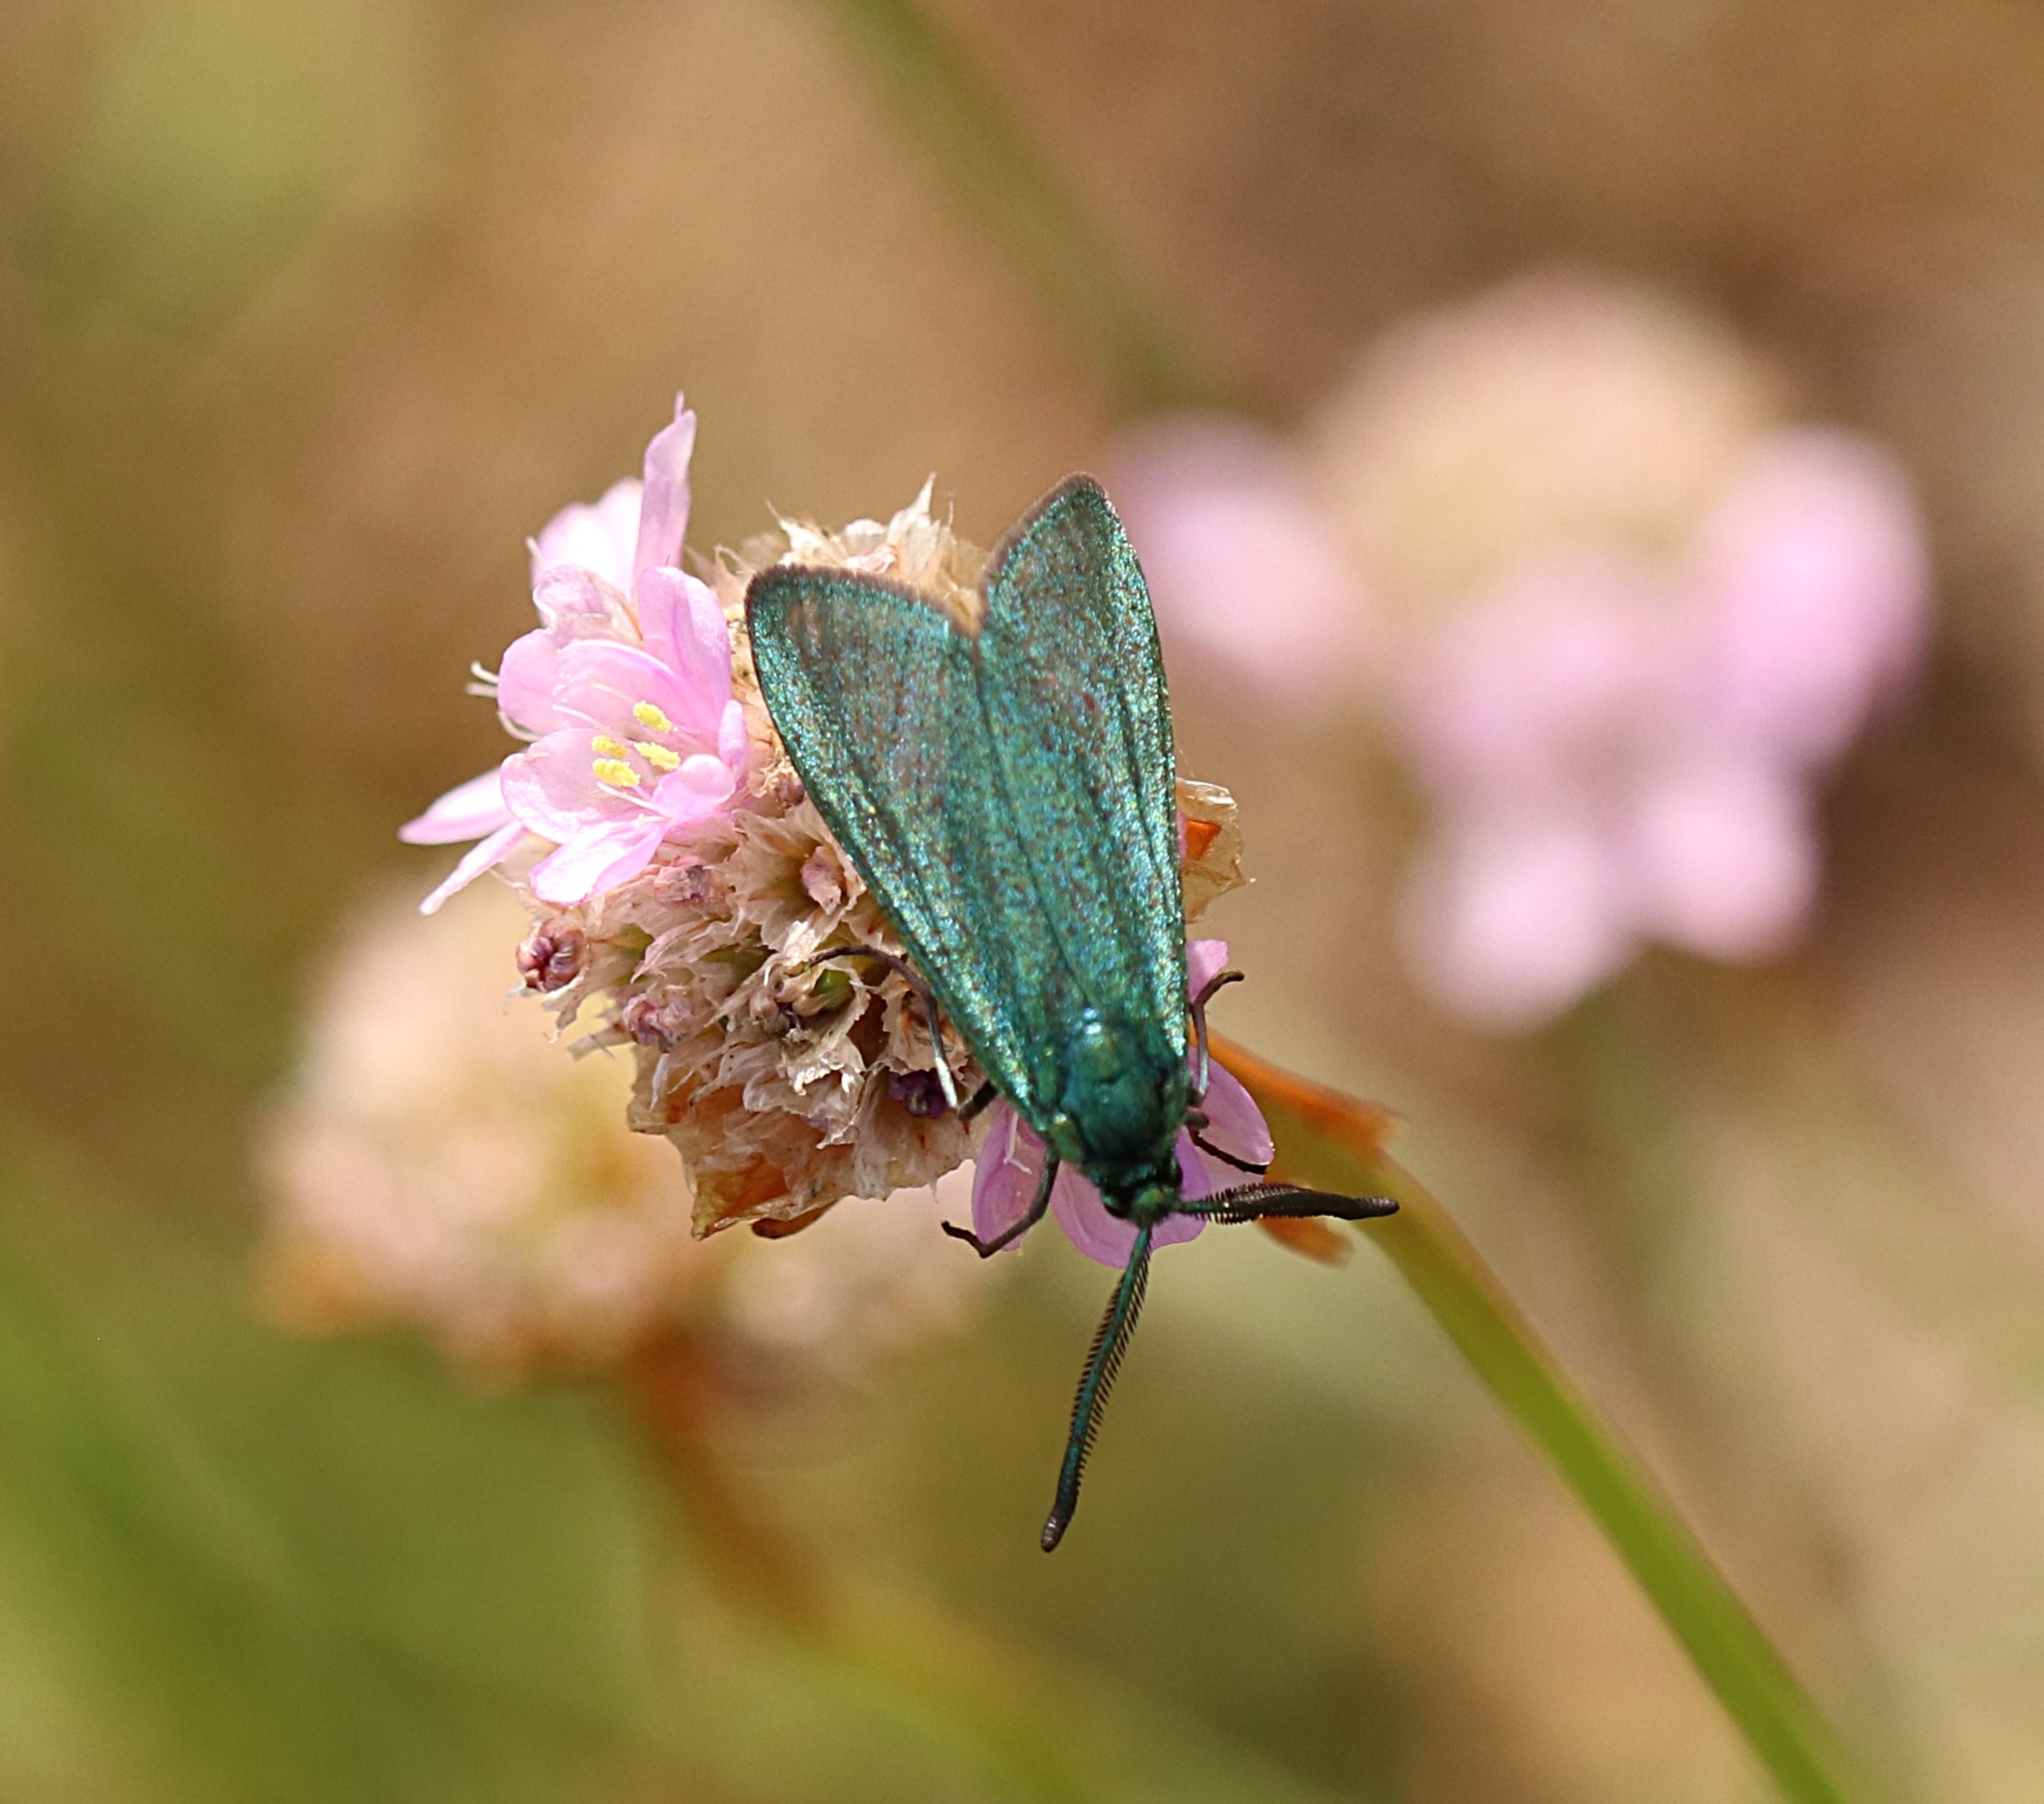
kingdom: Animalia
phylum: Arthropoda
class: Insecta
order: Lepidoptera
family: Zygaenidae
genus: Adscita
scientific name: Adscita statices
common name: Metalvinge
